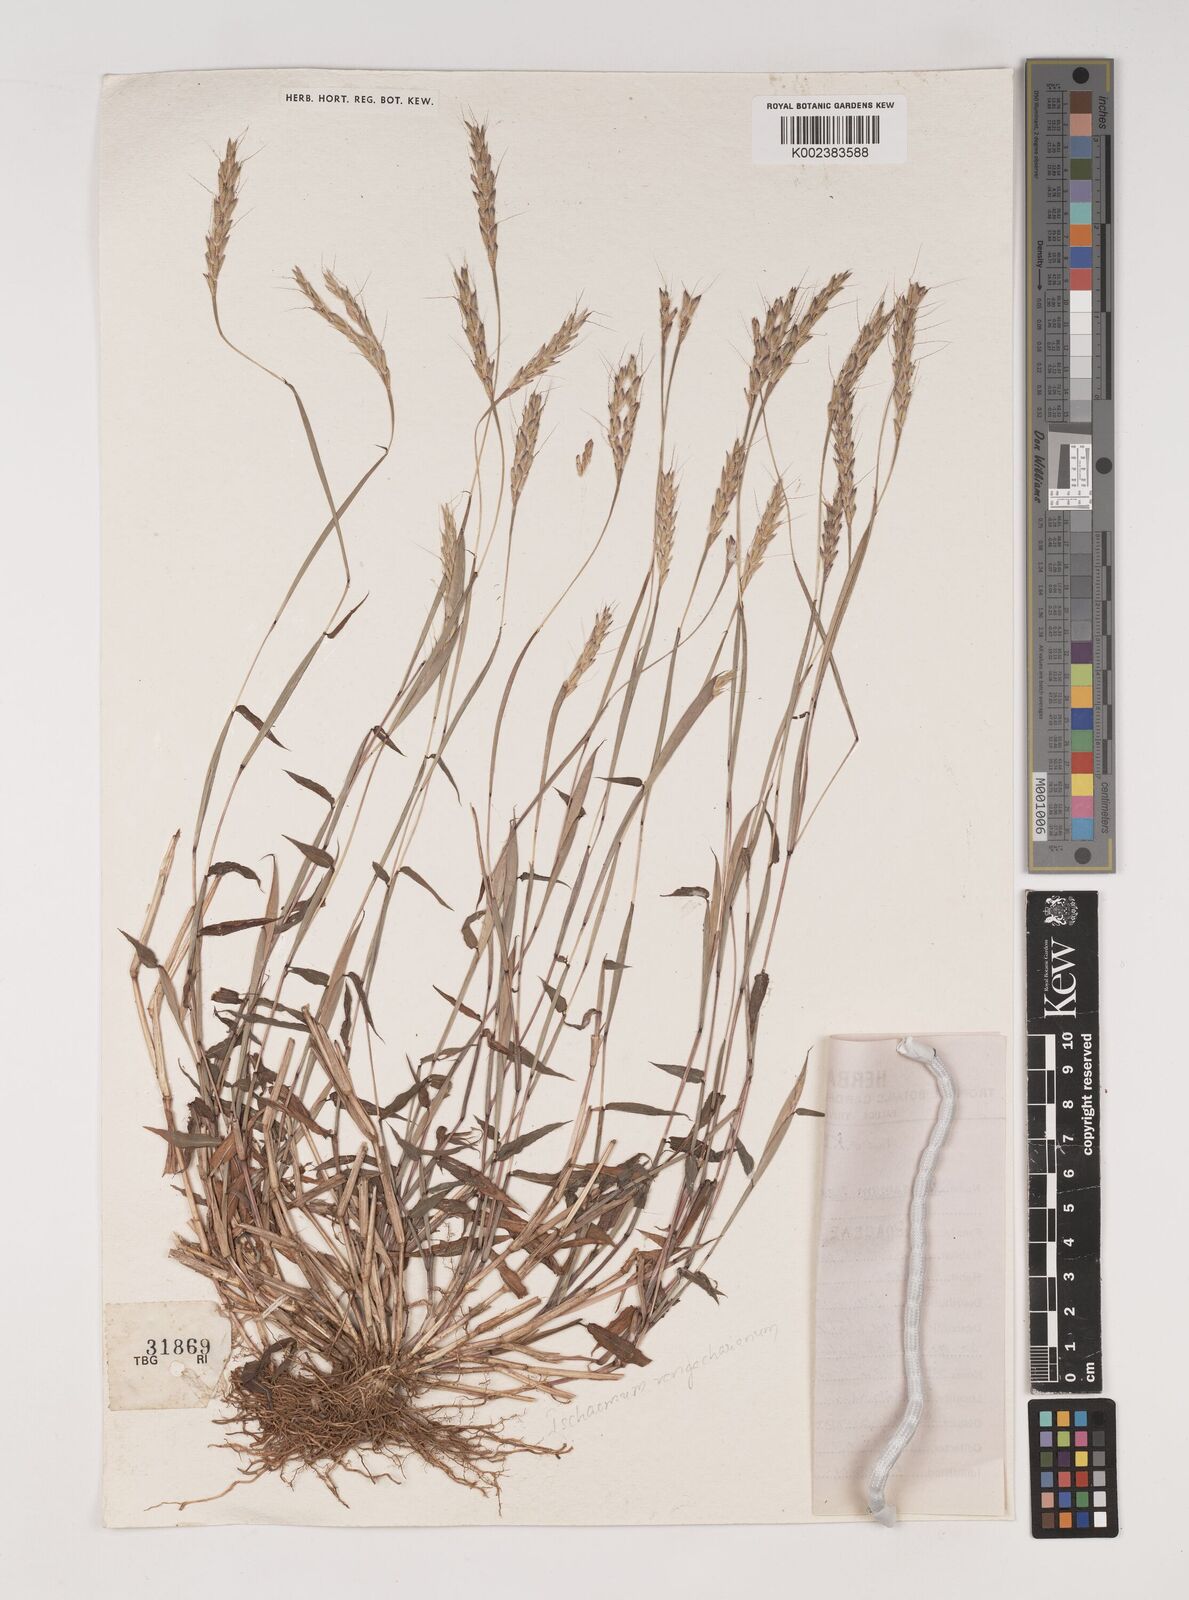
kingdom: Plantae
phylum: Tracheophyta
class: Liliopsida
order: Poales
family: Poaceae
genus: Ischaemum
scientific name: Ischaemum rangacharianum
